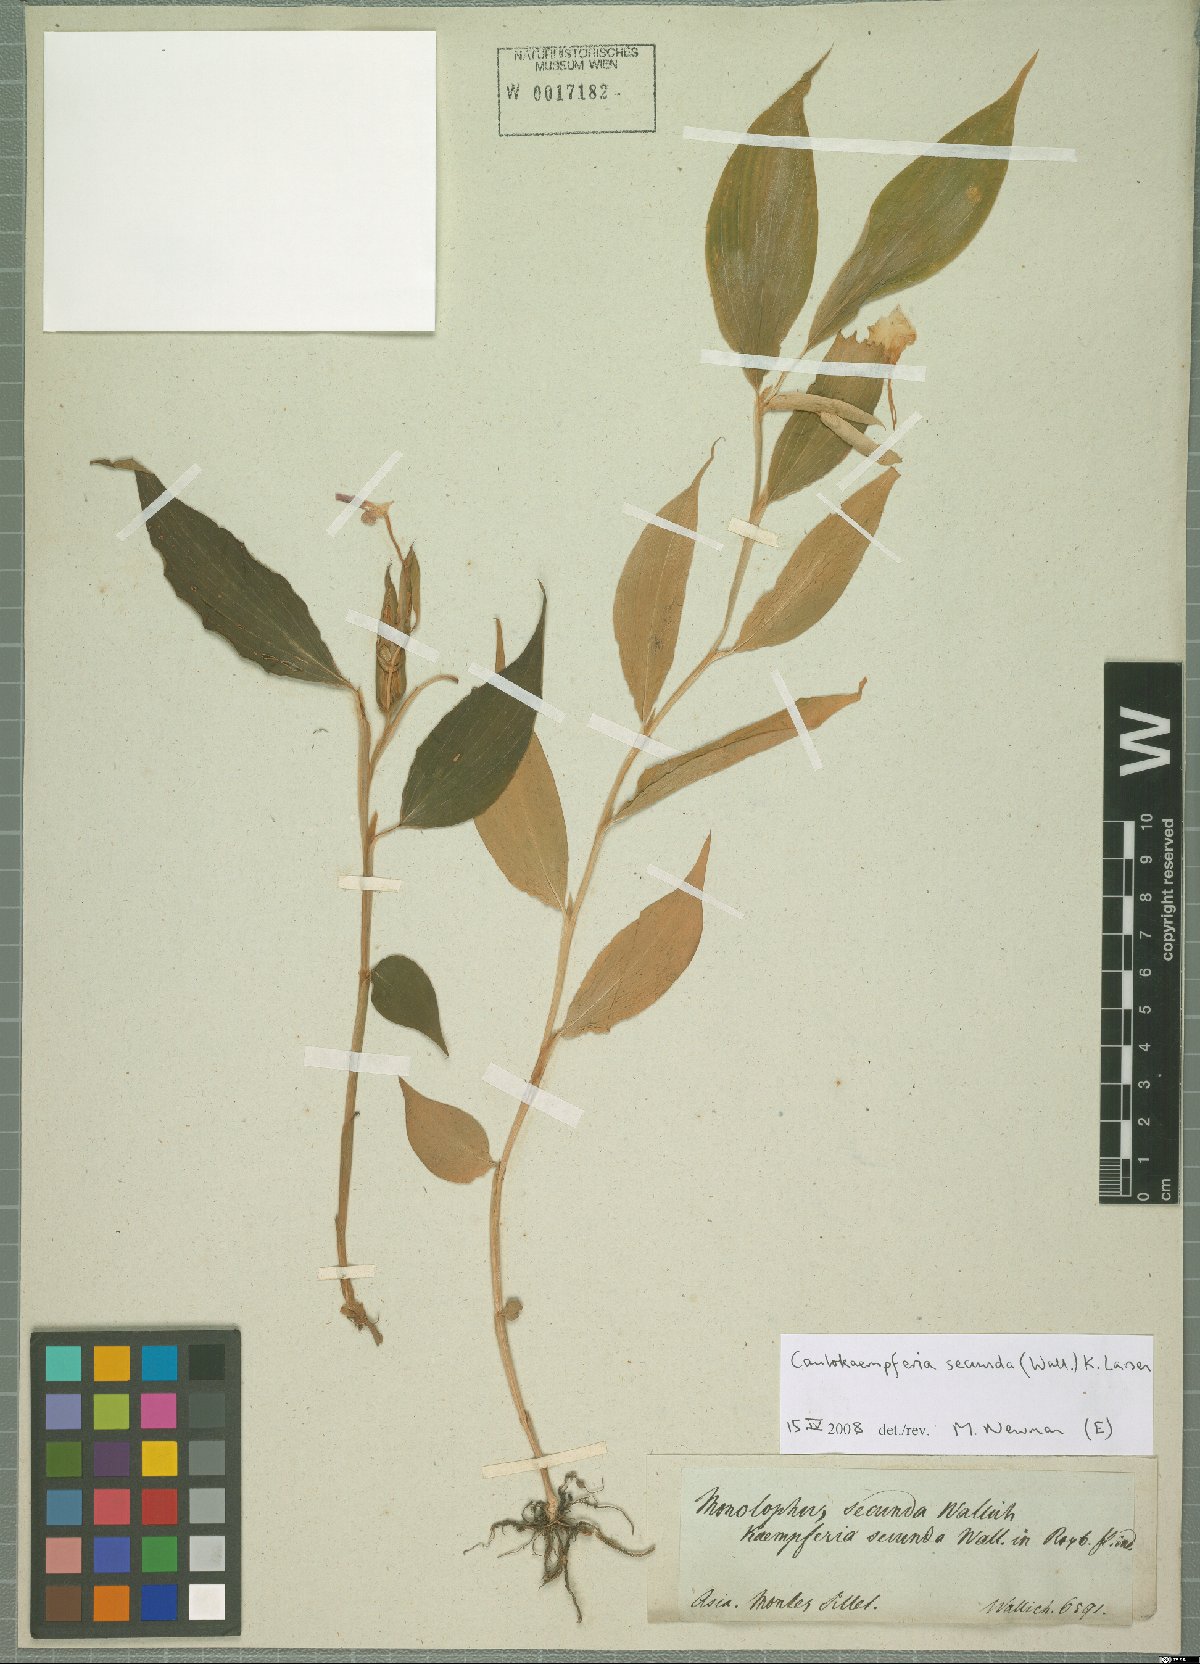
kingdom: Plantae
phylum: Tracheophyta
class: Liliopsida
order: Zingiberales
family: Zingiberaceae
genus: Caulokaempferia
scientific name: Caulokaempferia secunda
